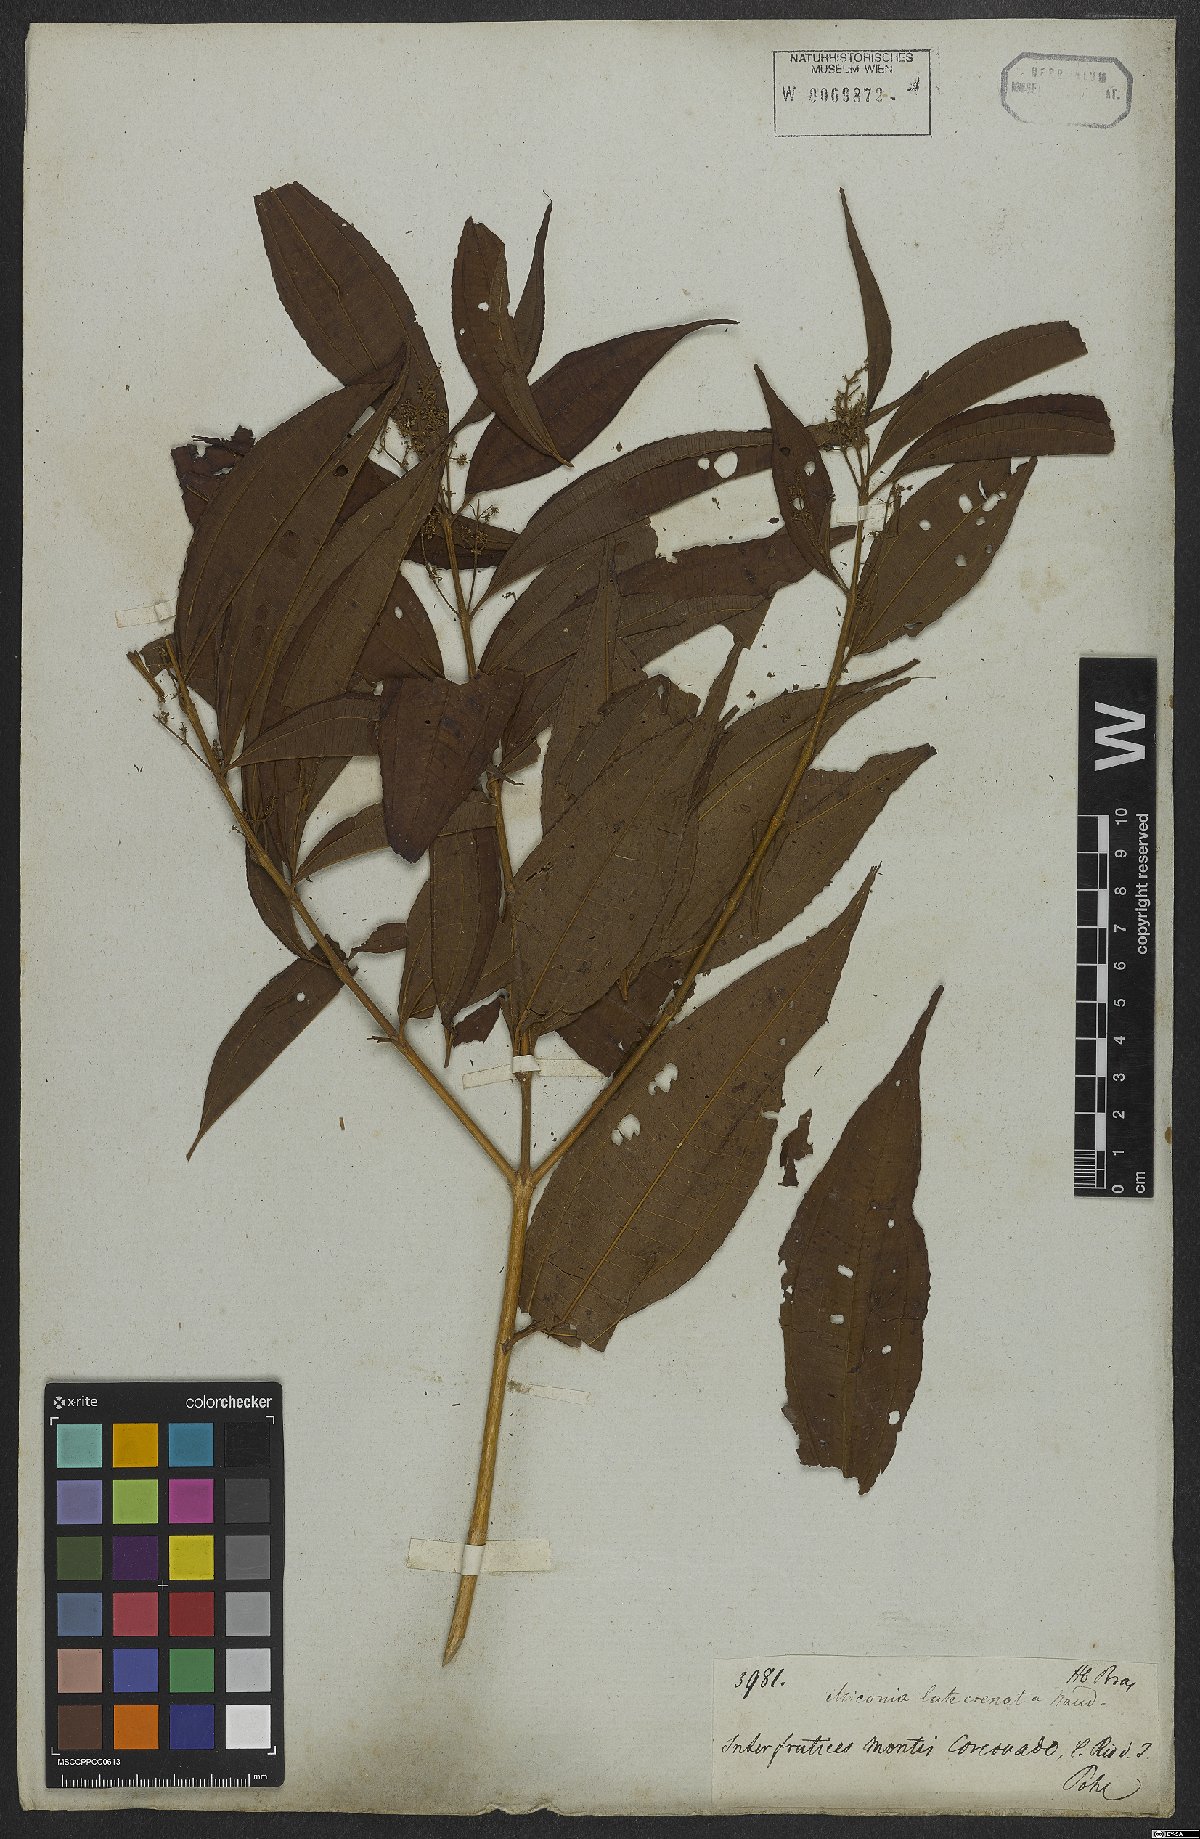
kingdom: Plantae
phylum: Tracheophyta
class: Magnoliopsida
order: Myrtales
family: Melastomataceae
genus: Miconia
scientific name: Miconia latecrenata
